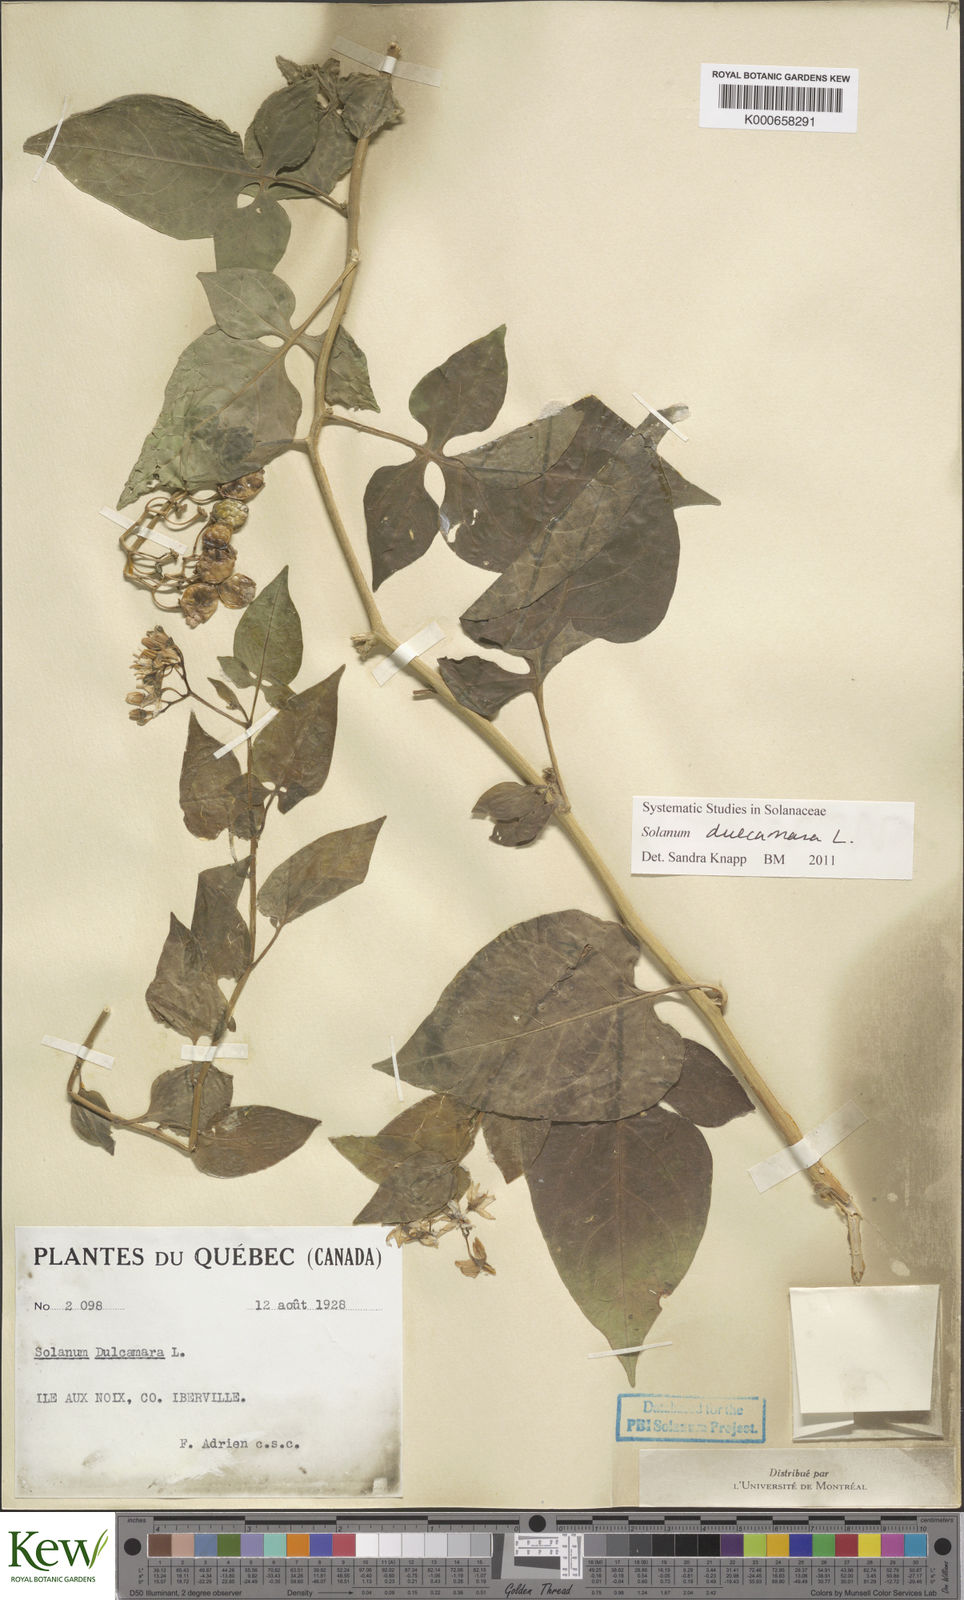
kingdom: Plantae
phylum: Tracheophyta
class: Magnoliopsida
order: Solanales
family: Solanaceae
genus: Solanum
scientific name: Solanum dulcamara
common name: Climbing nightshade
